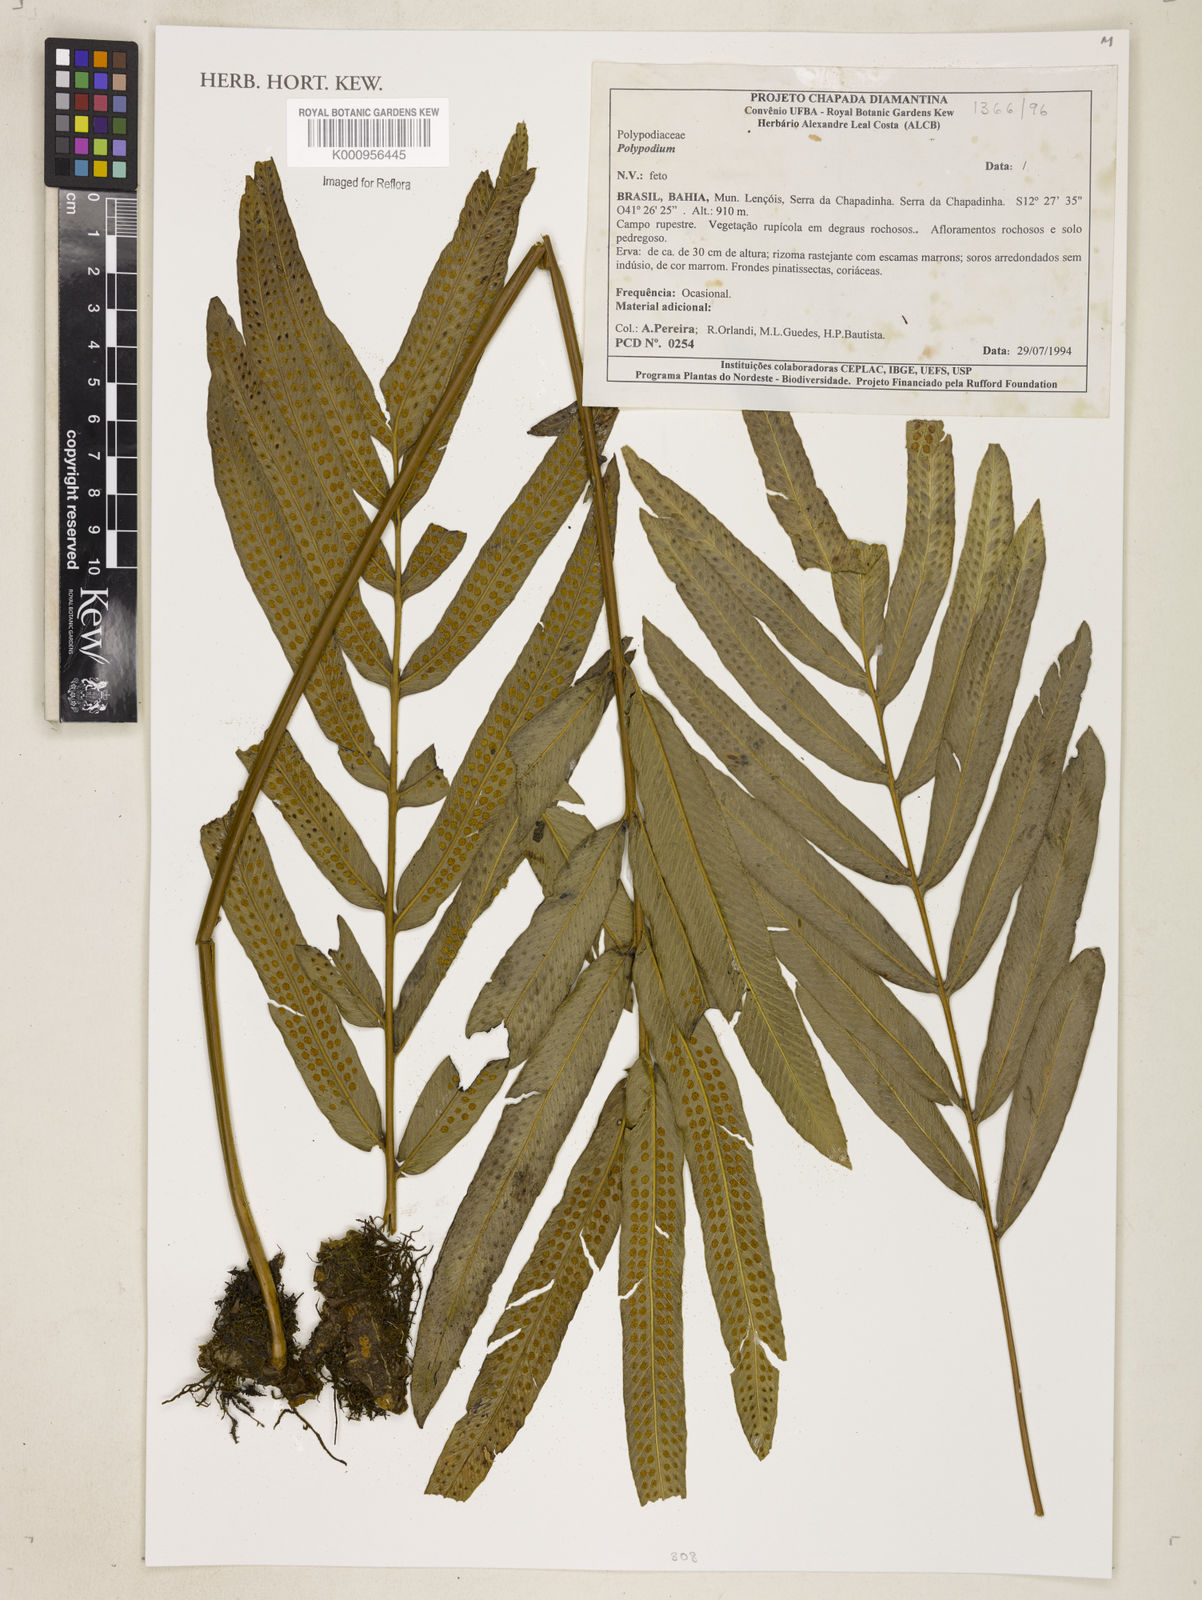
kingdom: Plantae
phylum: Tracheophyta
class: Polypodiopsida
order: Polypodiales
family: Polypodiaceae
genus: Polypodium
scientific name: Polypodium
